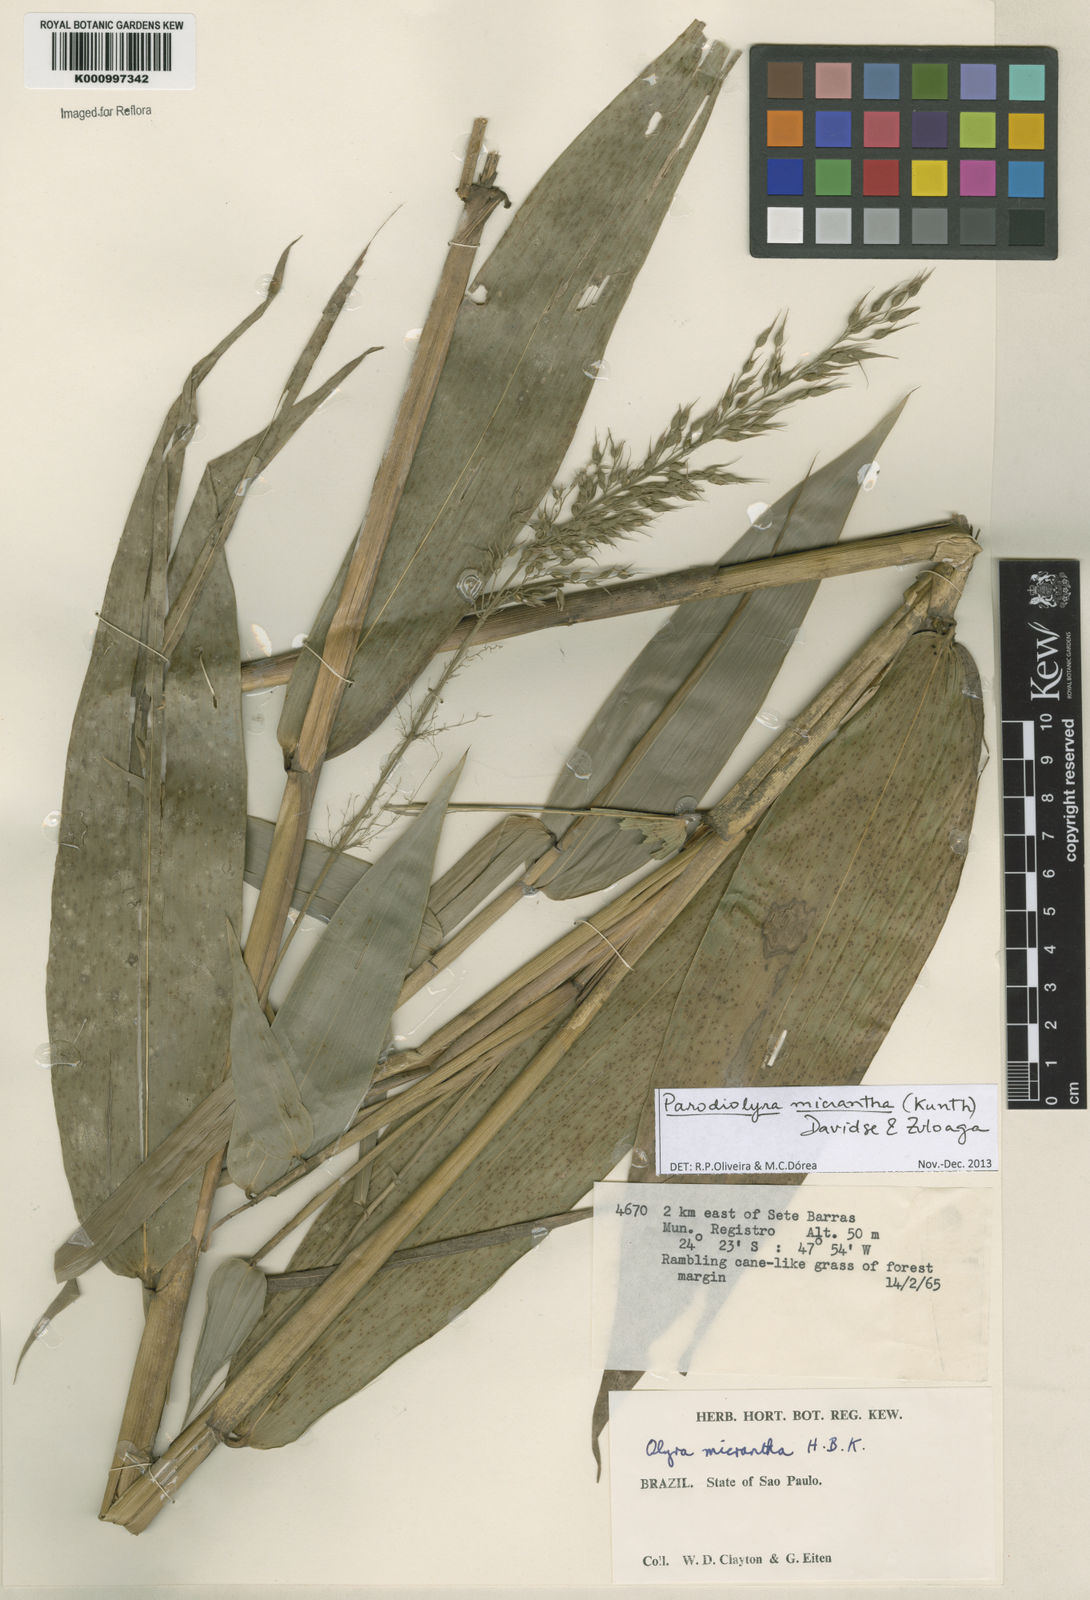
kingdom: Plantae
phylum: Tracheophyta
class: Liliopsida
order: Poales
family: Poaceae
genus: Taquara
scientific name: Taquara micrantha
